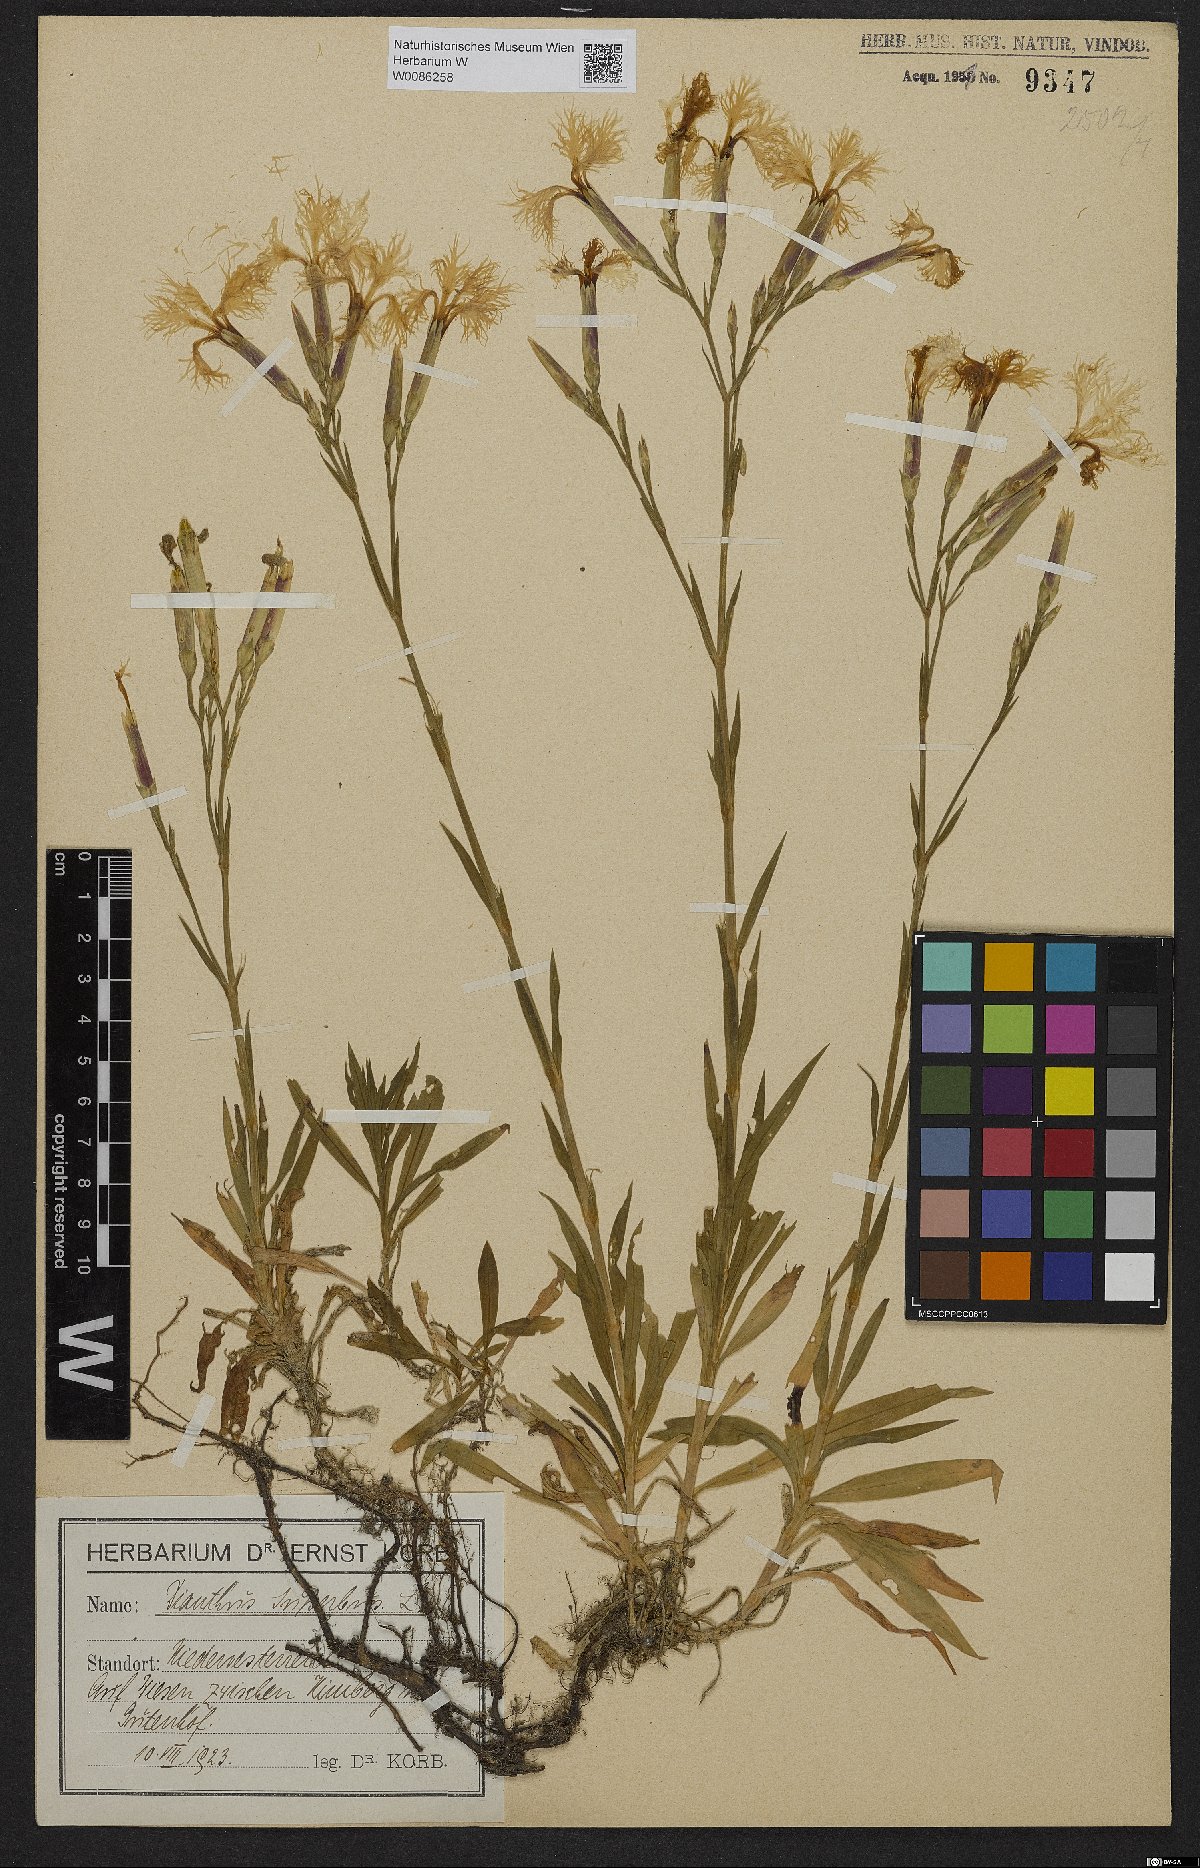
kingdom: Plantae
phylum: Tracheophyta
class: Magnoliopsida
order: Caryophyllales
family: Caryophyllaceae
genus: Dianthus
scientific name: Dianthus superbus
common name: Fringed pink
